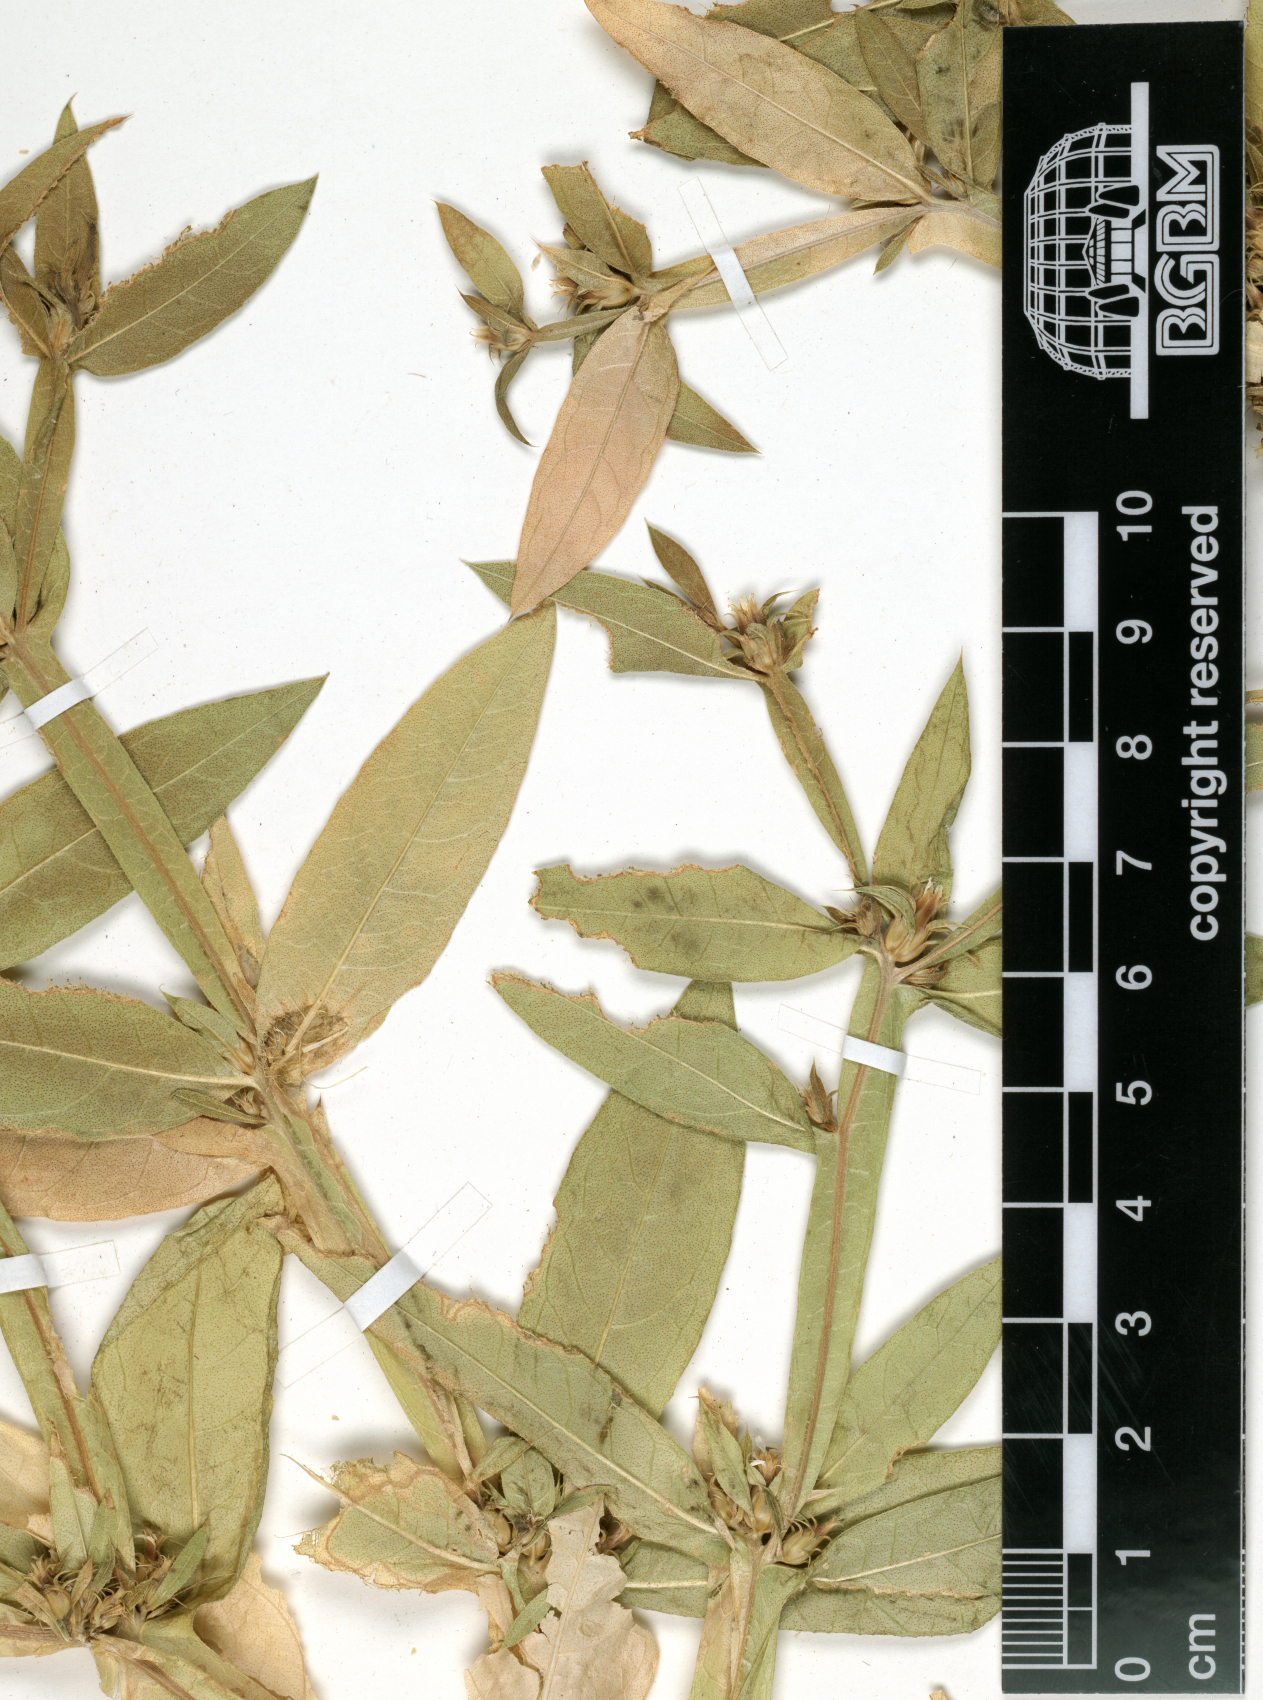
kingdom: Plantae
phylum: Tracheophyta
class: Magnoliopsida
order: Asterales
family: Asteraceae
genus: Geigeria
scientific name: Geigeria alata
